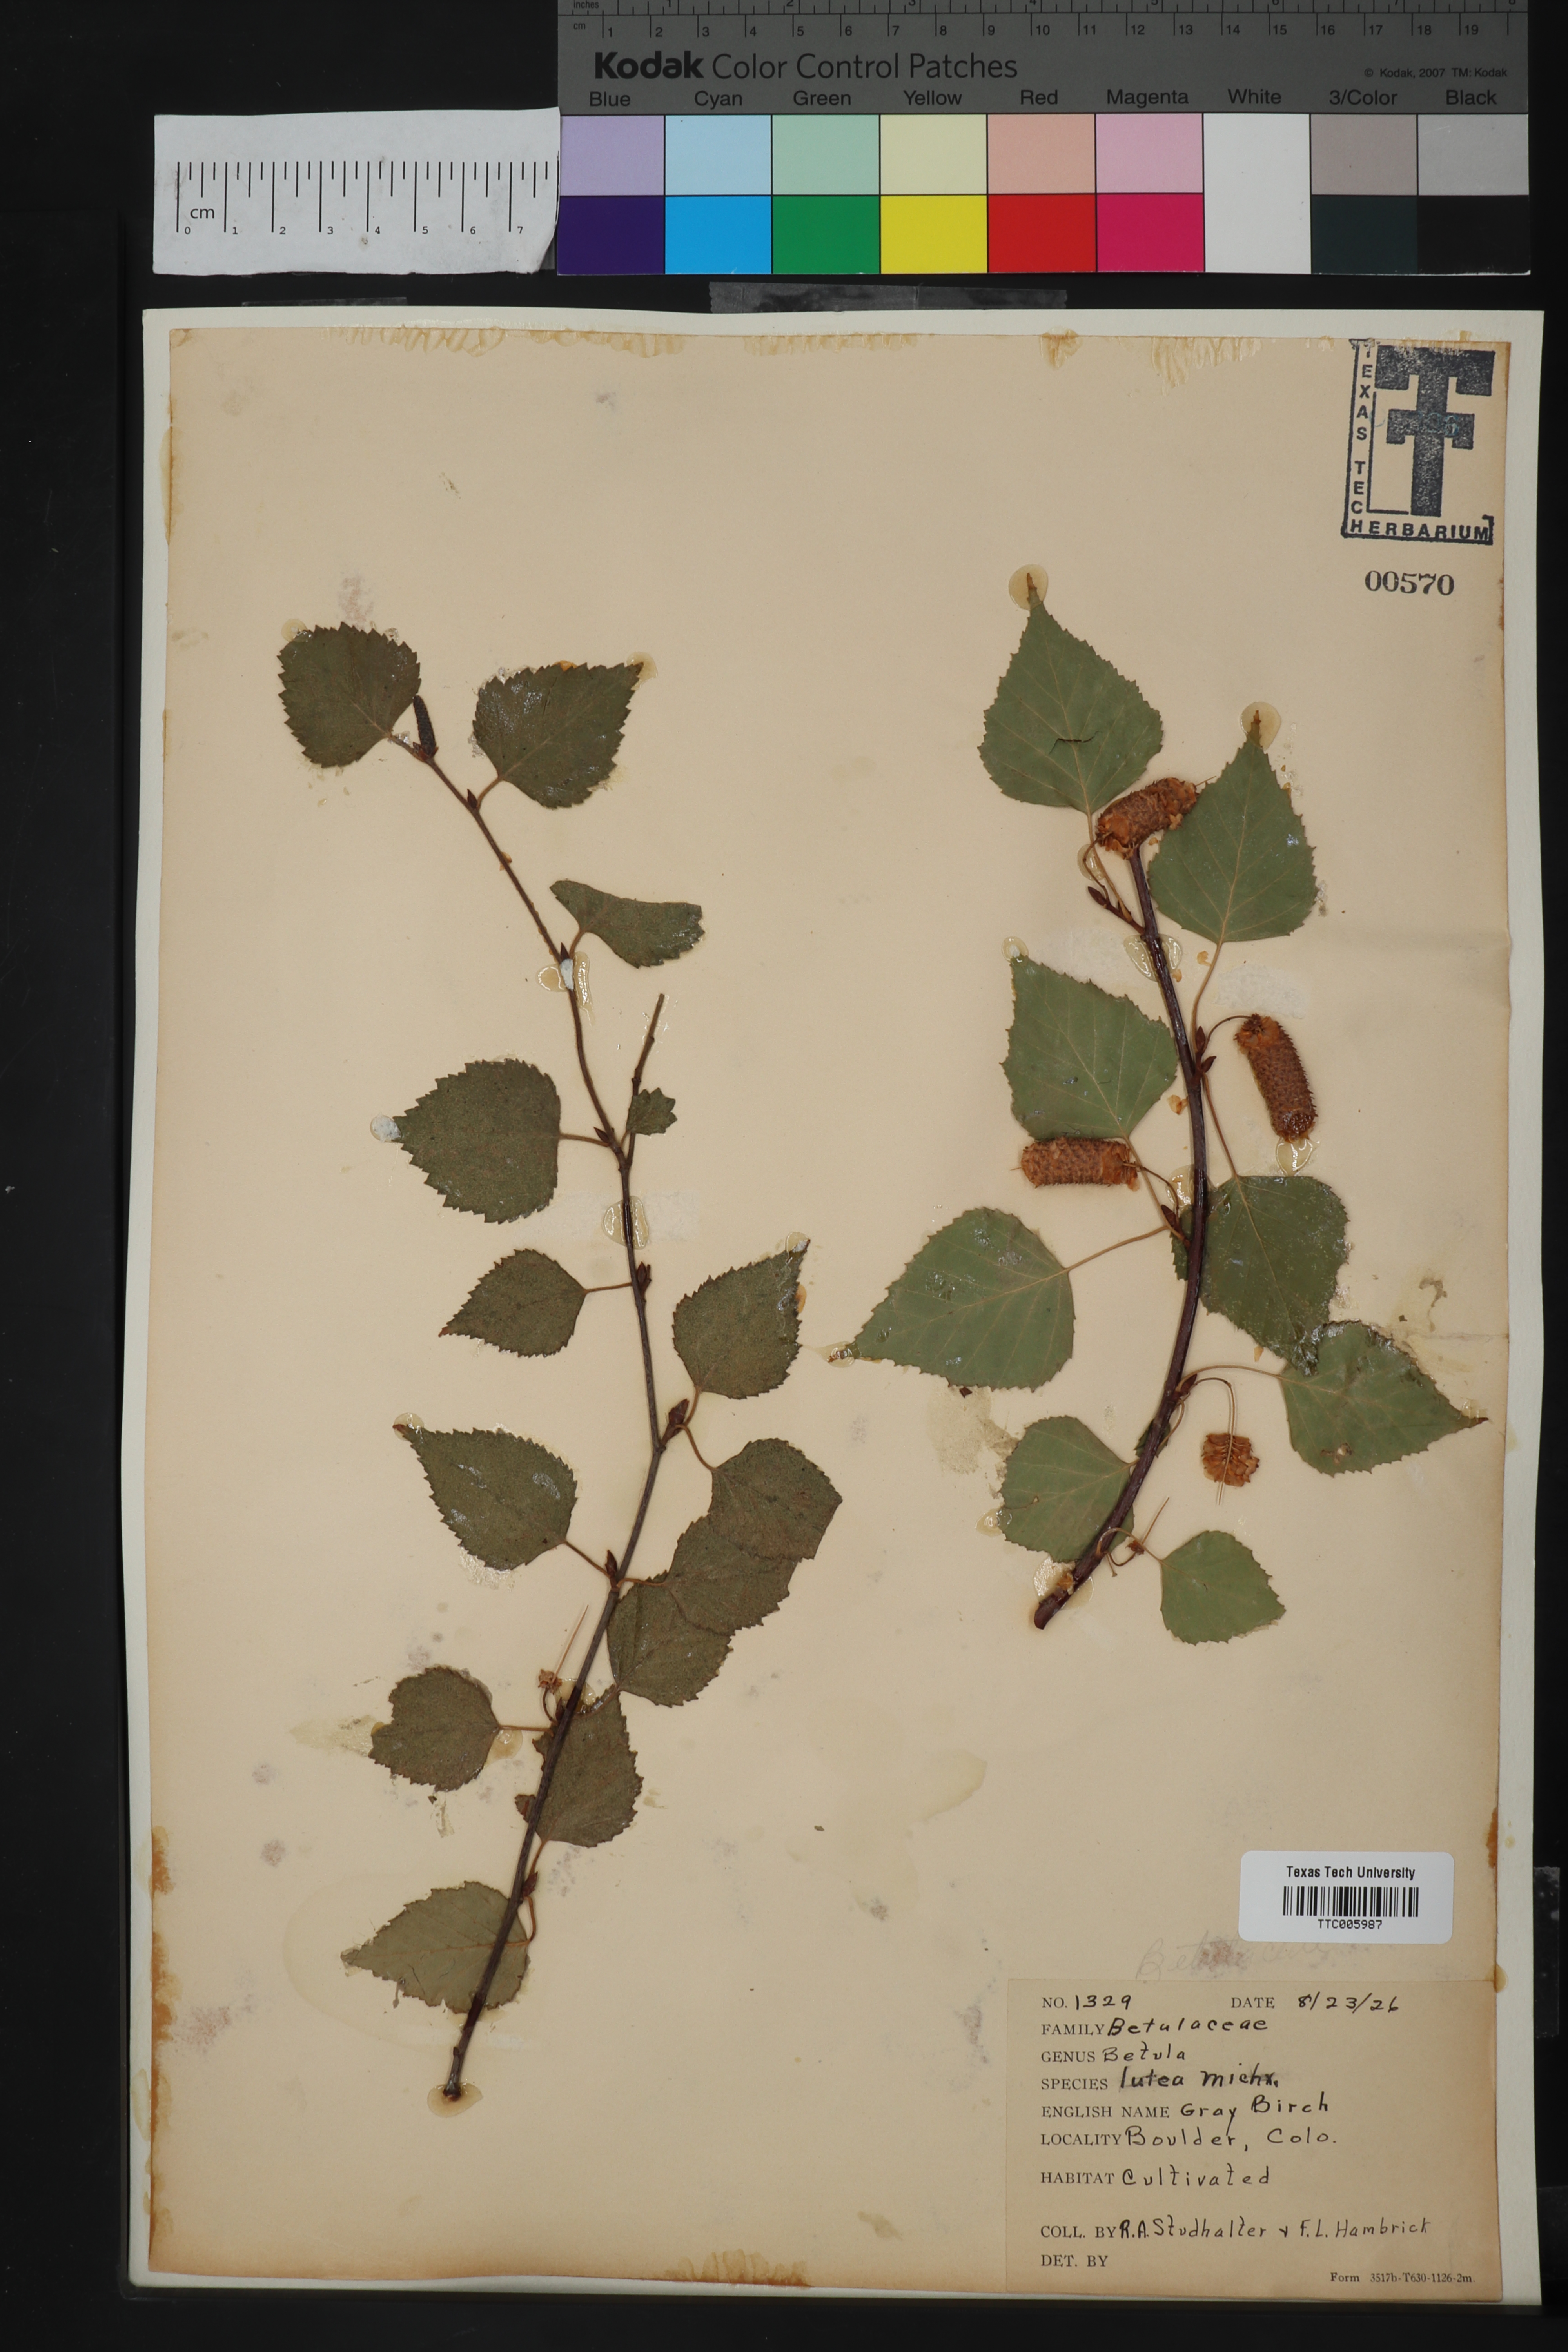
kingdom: Plantae
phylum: Tracheophyta
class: Magnoliopsida
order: Fagales
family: Betulaceae
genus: Betula
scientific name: Betula alleghaniensis
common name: Yellow birch
